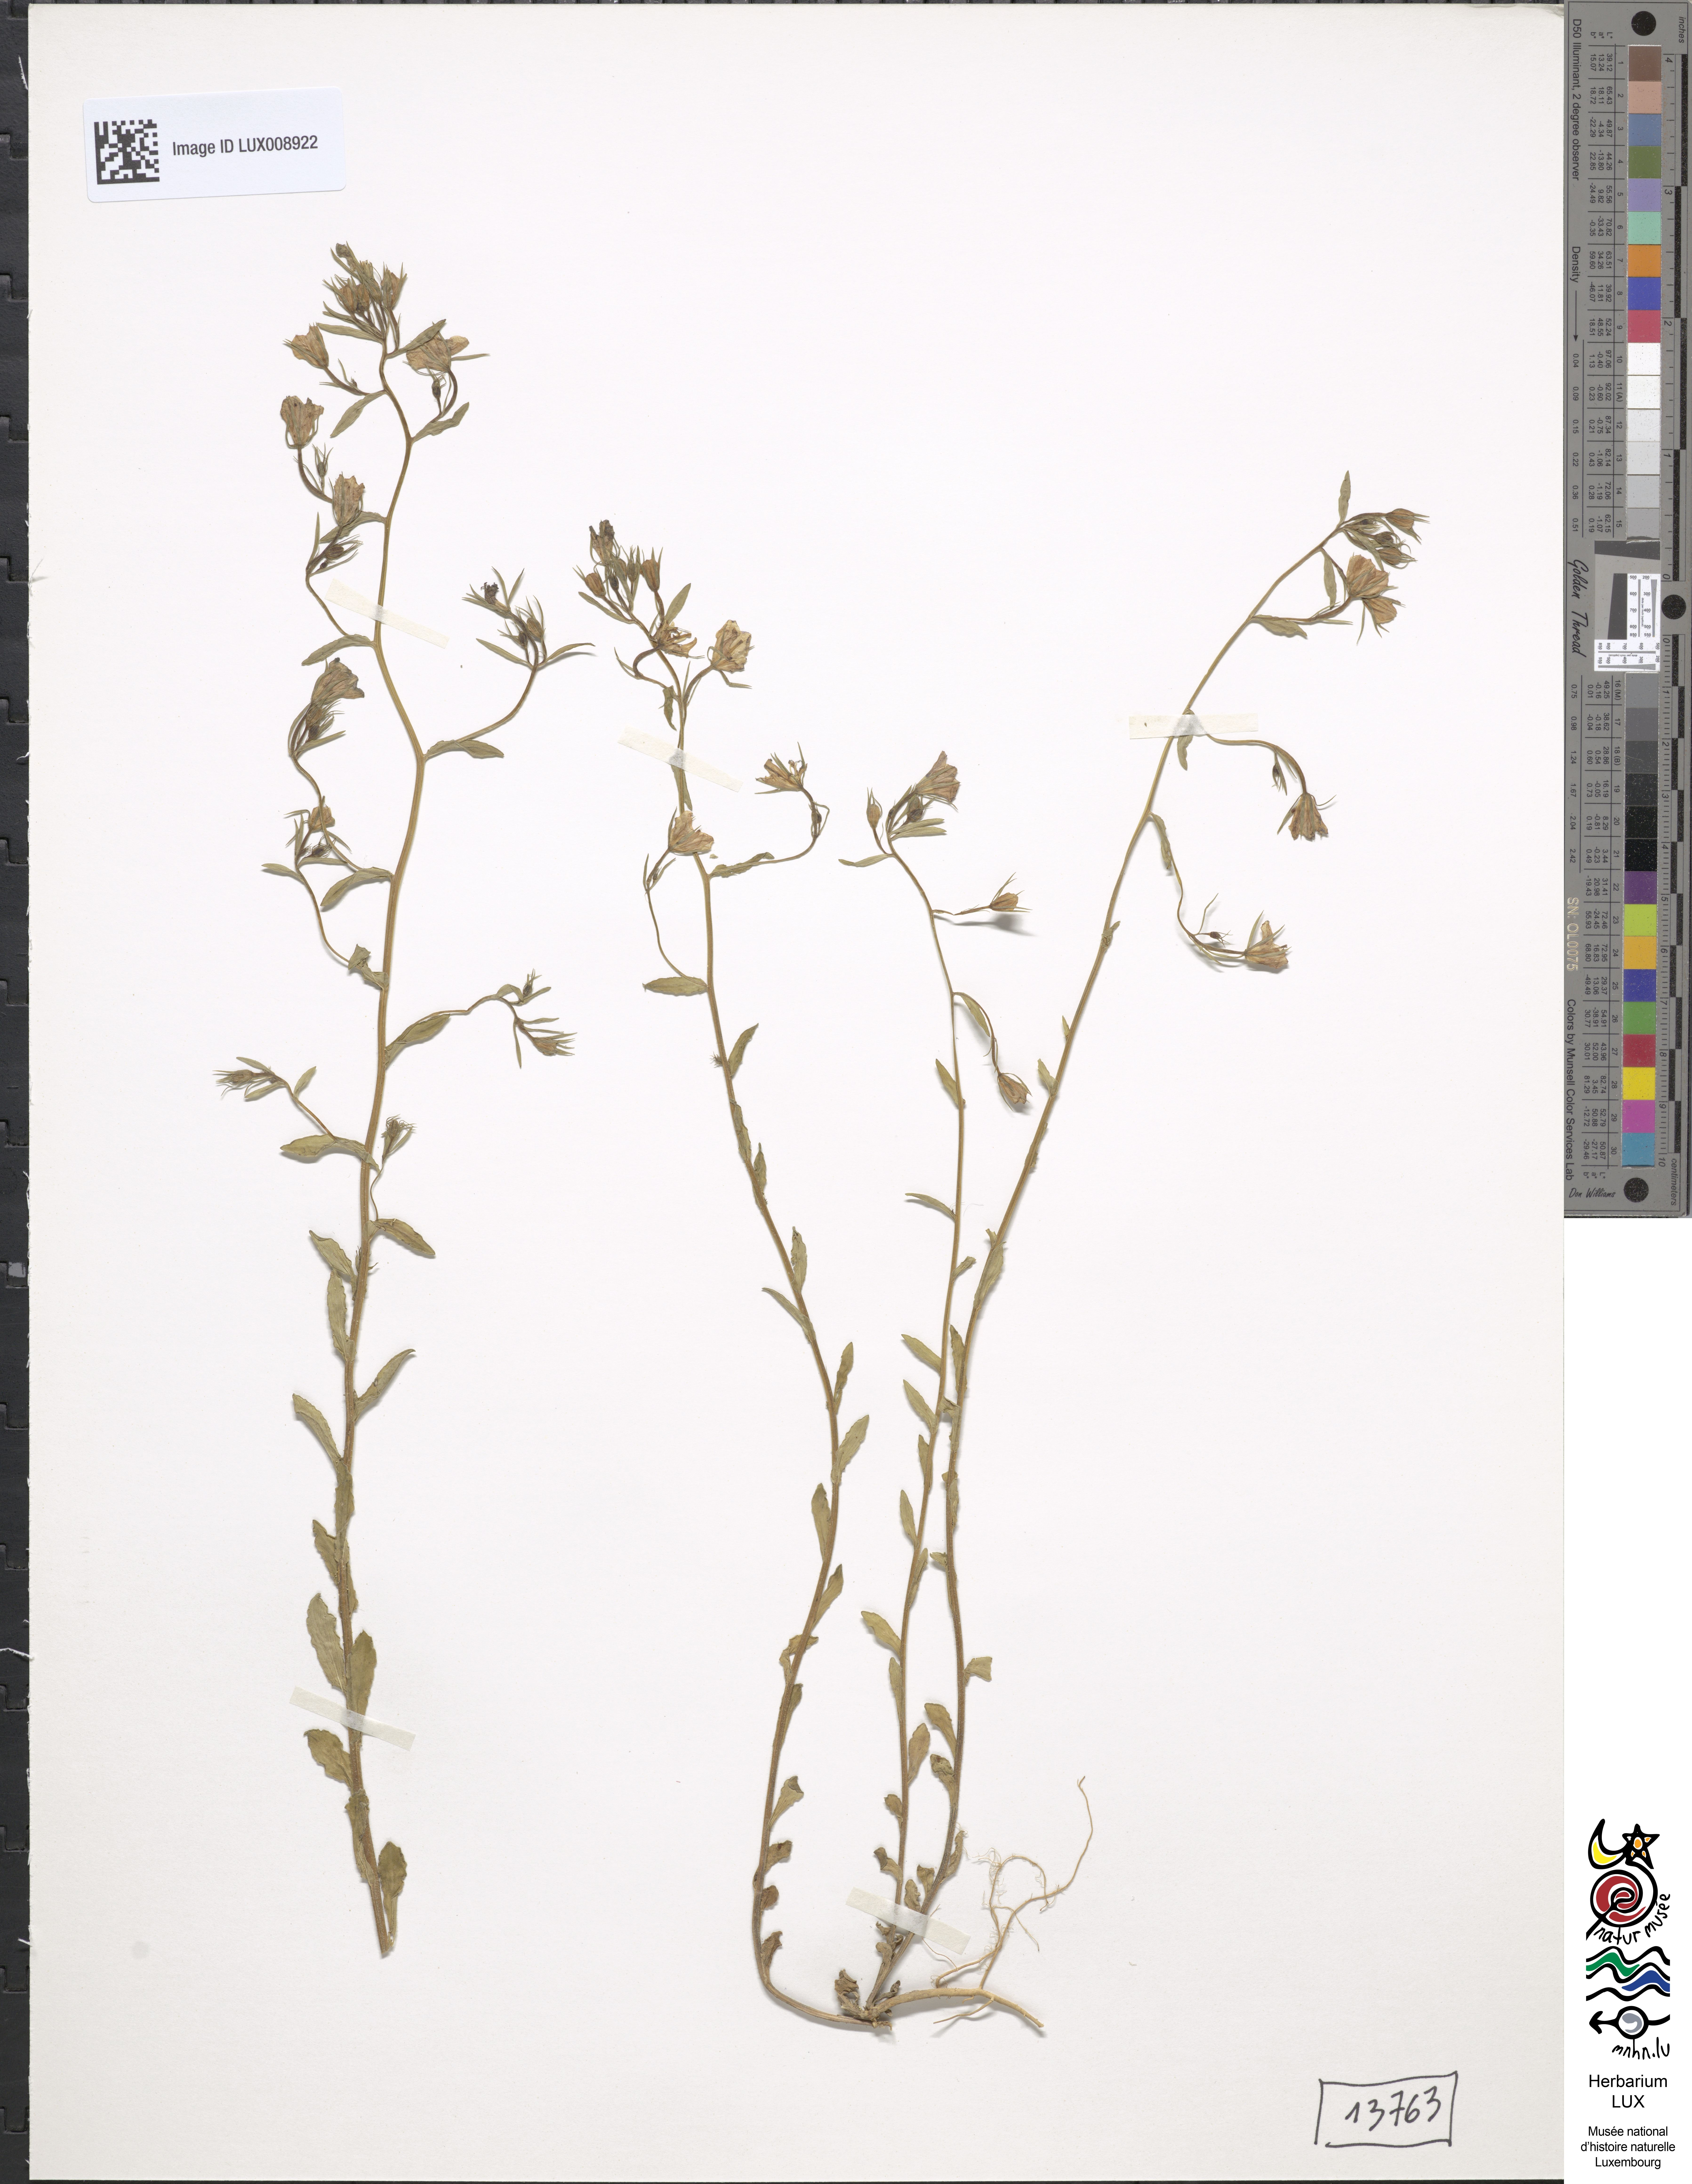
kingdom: Plantae
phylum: Tracheophyta
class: Magnoliopsida
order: Asterales
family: Campanulaceae
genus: Legousia
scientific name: Legousia speculum-veneris
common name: Large venus's-looking-glass
